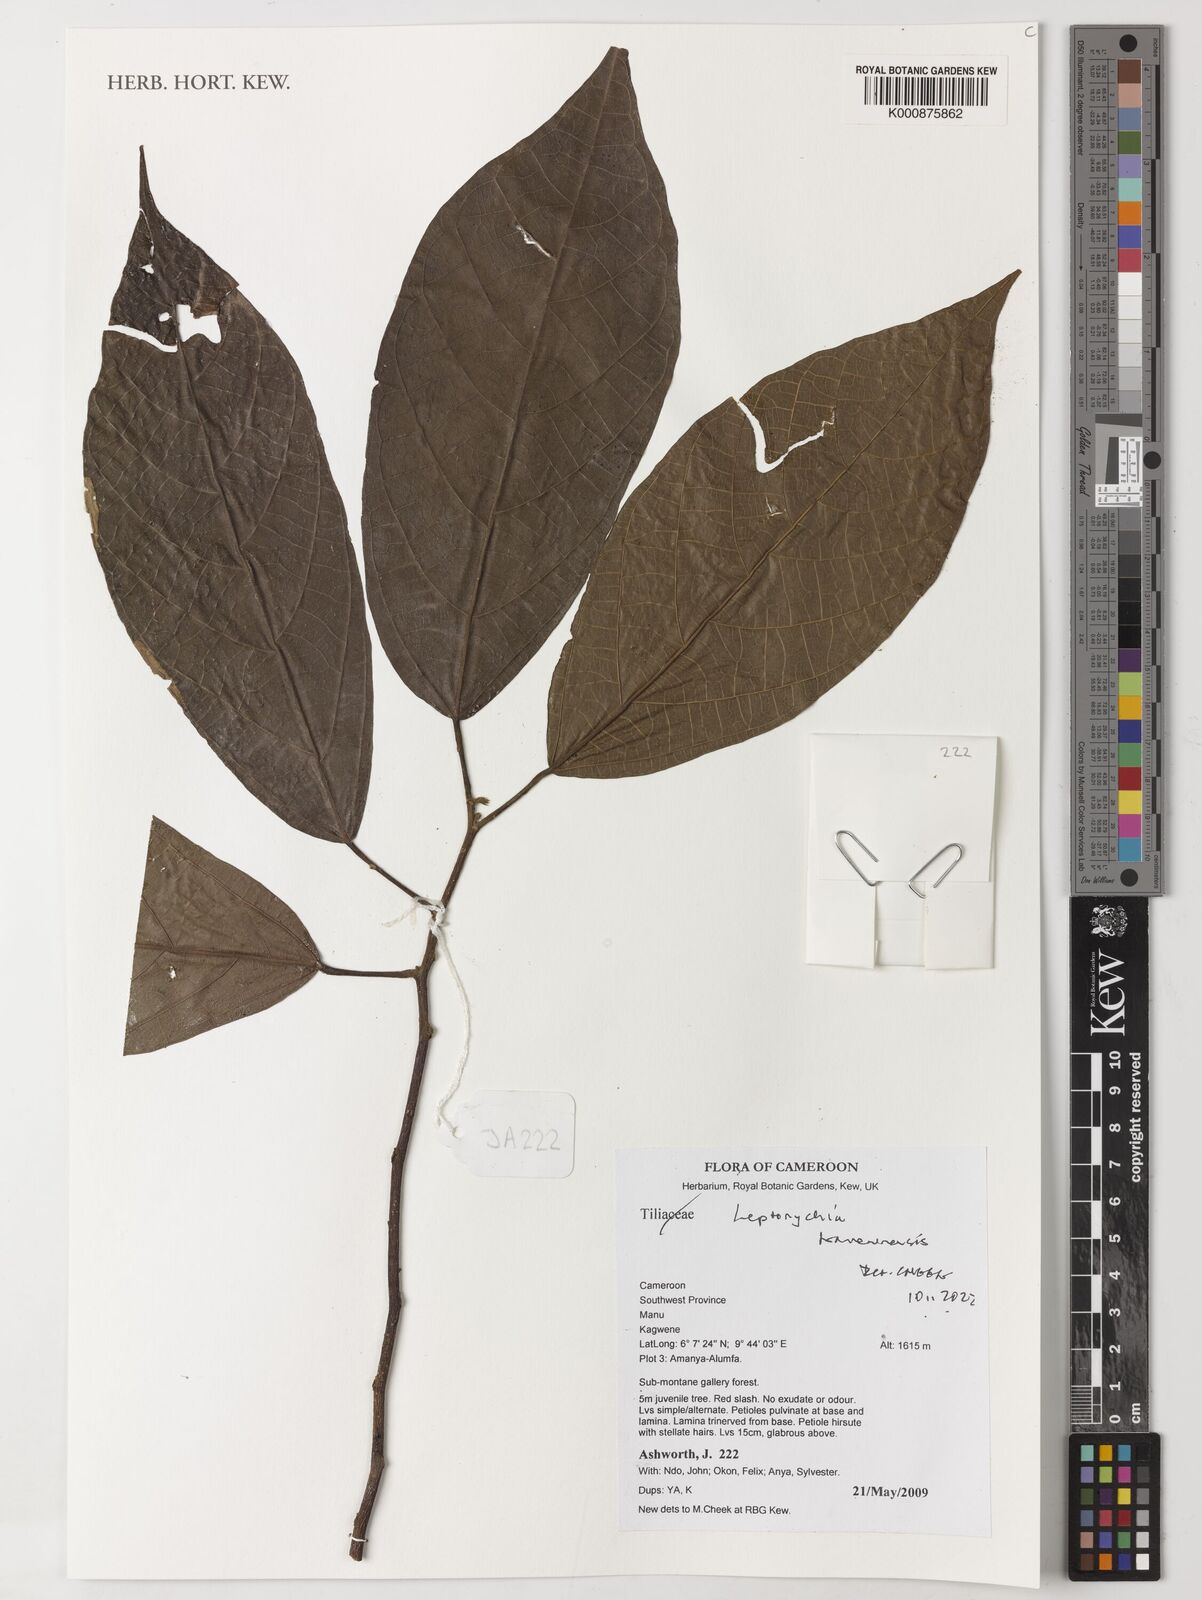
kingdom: Plantae
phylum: Tracheophyta
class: Magnoliopsida
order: Malvales
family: Malvaceae
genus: Leptonychia
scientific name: Leptonychia kamerunensis
